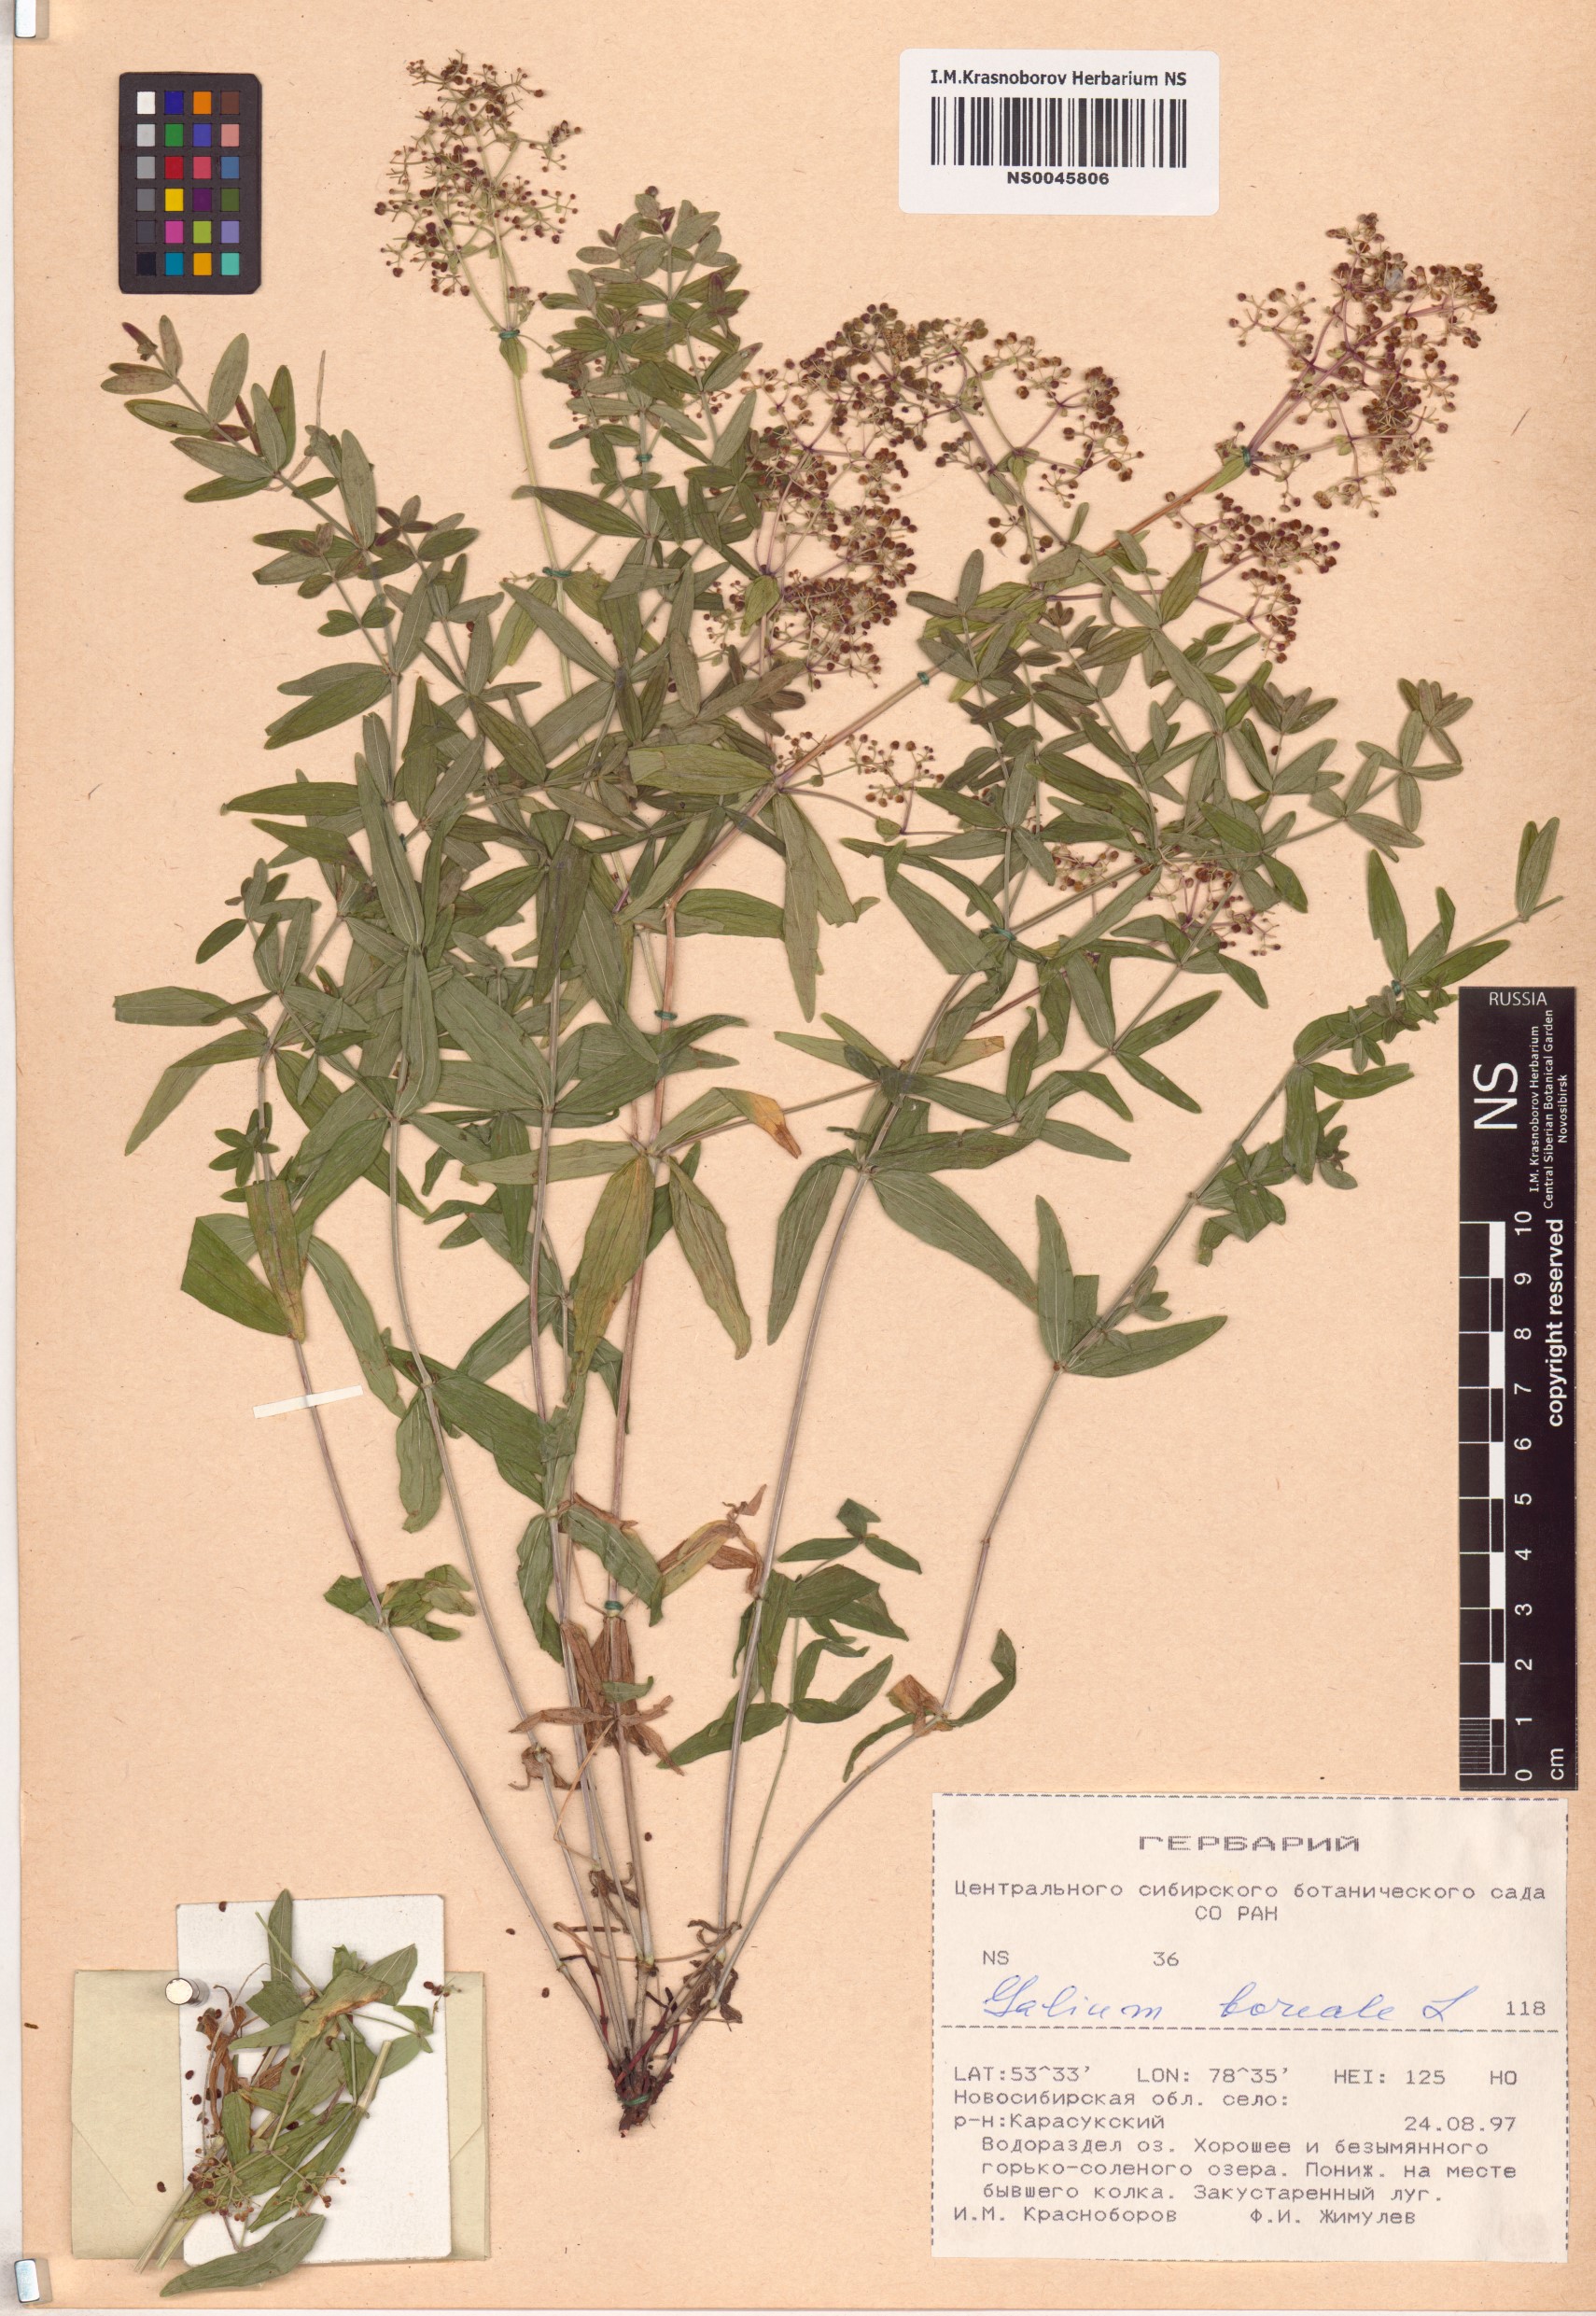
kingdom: Plantae
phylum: Tracheophyta
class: Magnoliopsida
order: Gentianales
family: Rubiaceae
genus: Galium
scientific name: Galium boreale
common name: Northern bedstraw
